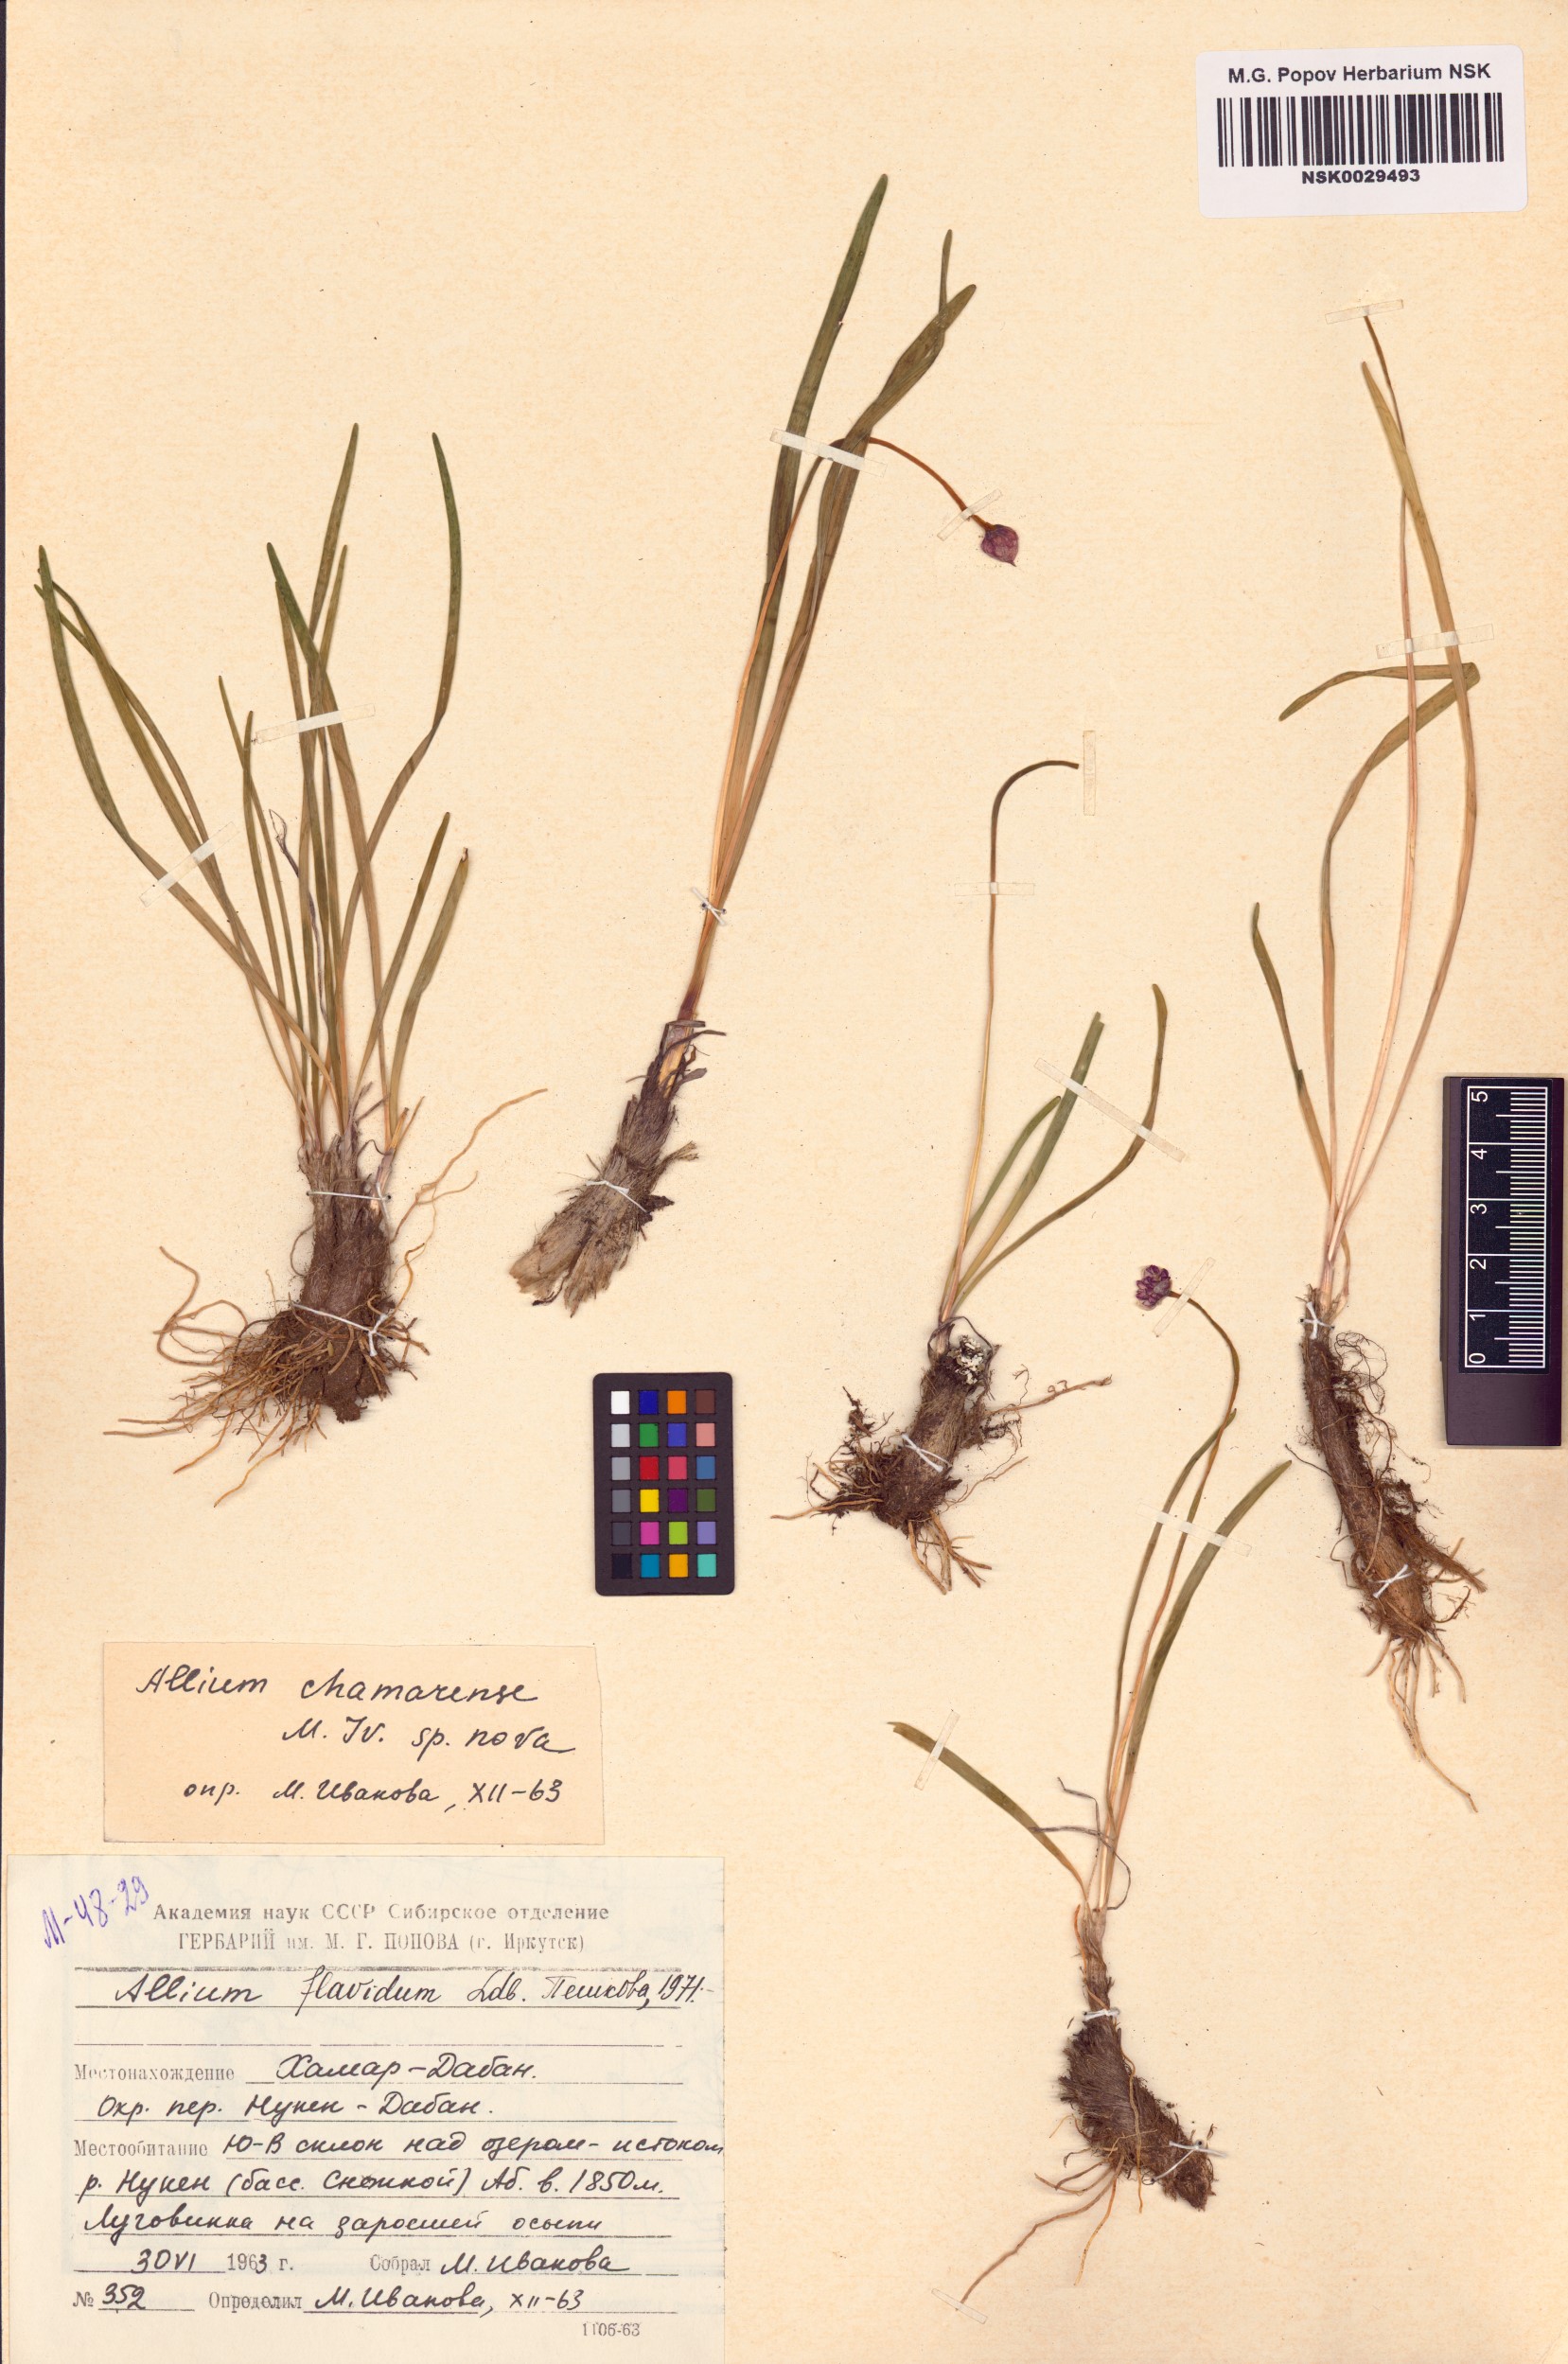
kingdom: Plantae
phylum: Tracheophyta
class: Liliopsida
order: Asparagales
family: Amaryllidaceae
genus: Allium
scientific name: Allium flavidum
